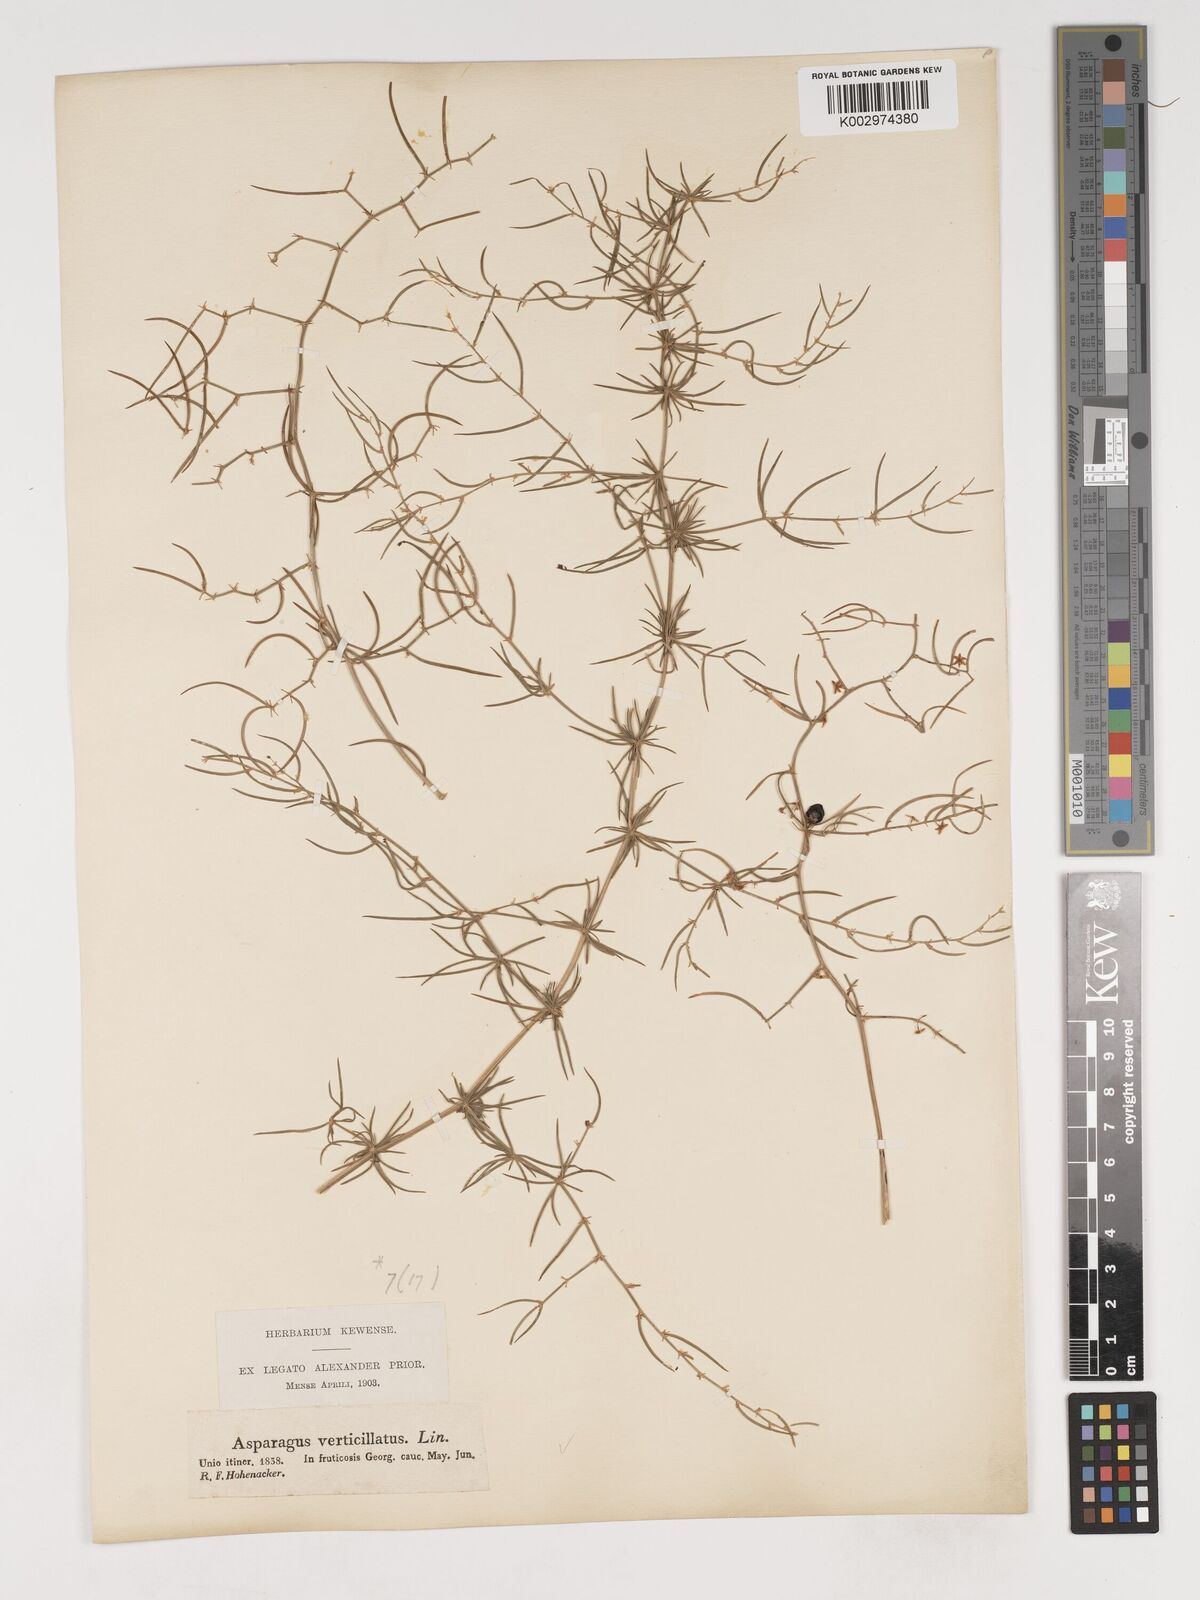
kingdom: Plantae
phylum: Tracheophyta
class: Liliopsida
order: Asparagales
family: Asparagaceae
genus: Asparagus
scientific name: Asparagus verticillatus
